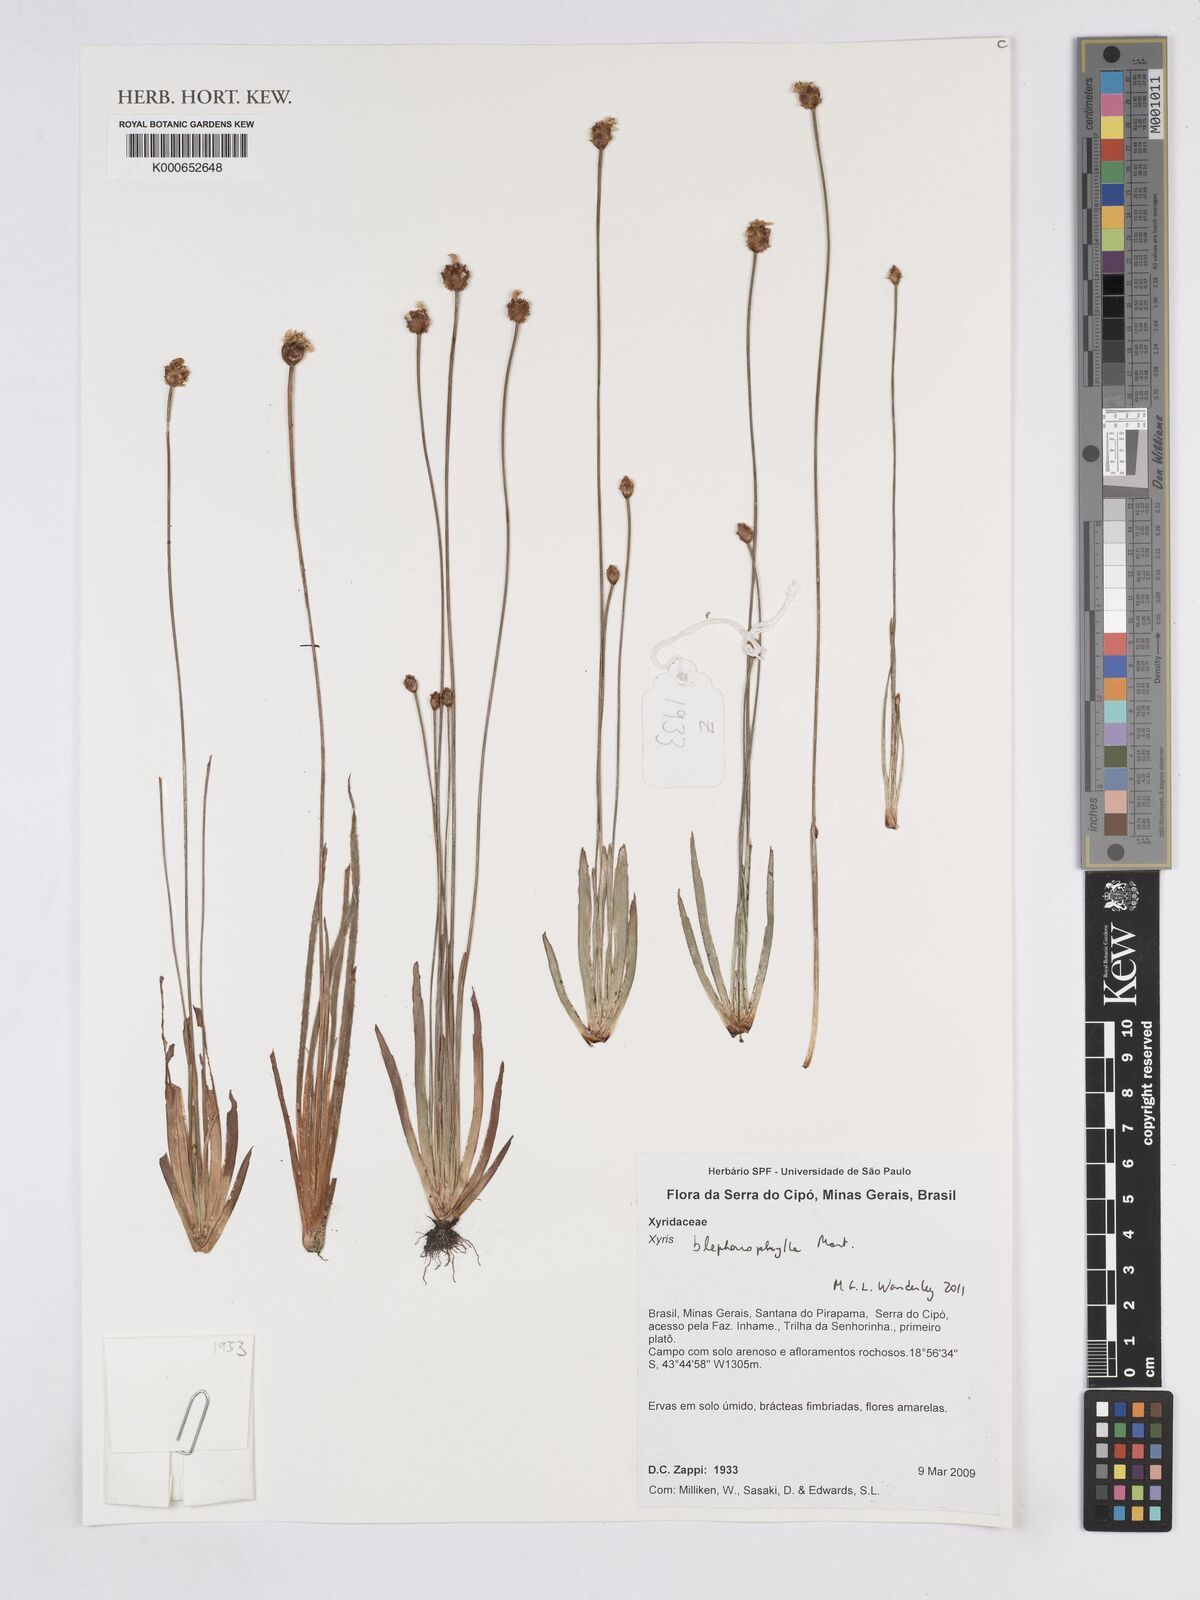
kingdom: Plantae
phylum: Tracheophyta
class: Liliopsida
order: Poales
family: Xyridaceae
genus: Xyris
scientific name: Xyris blepharophylla
